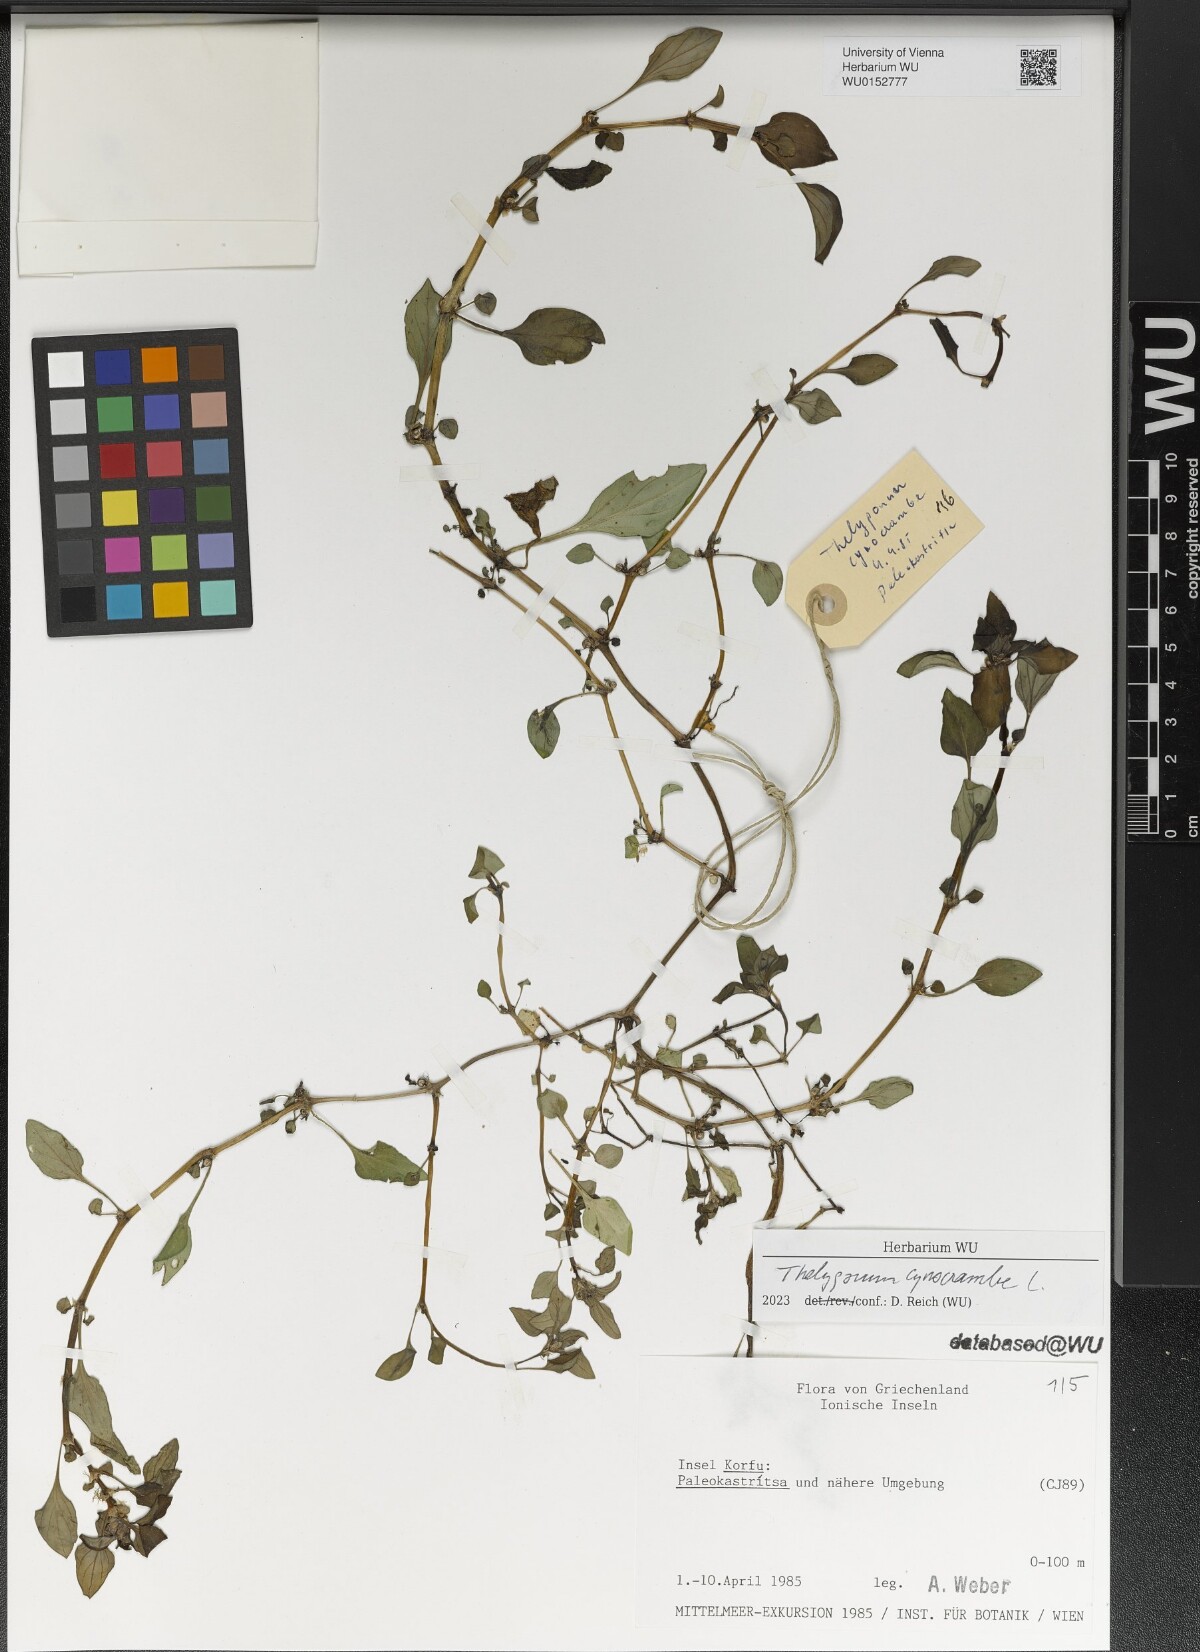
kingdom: Plantae
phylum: Tracheophyta
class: Magnoliopsida
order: Gentianales
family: Rubiaceae
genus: Theligonum
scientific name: Theligonum cynocrambe
